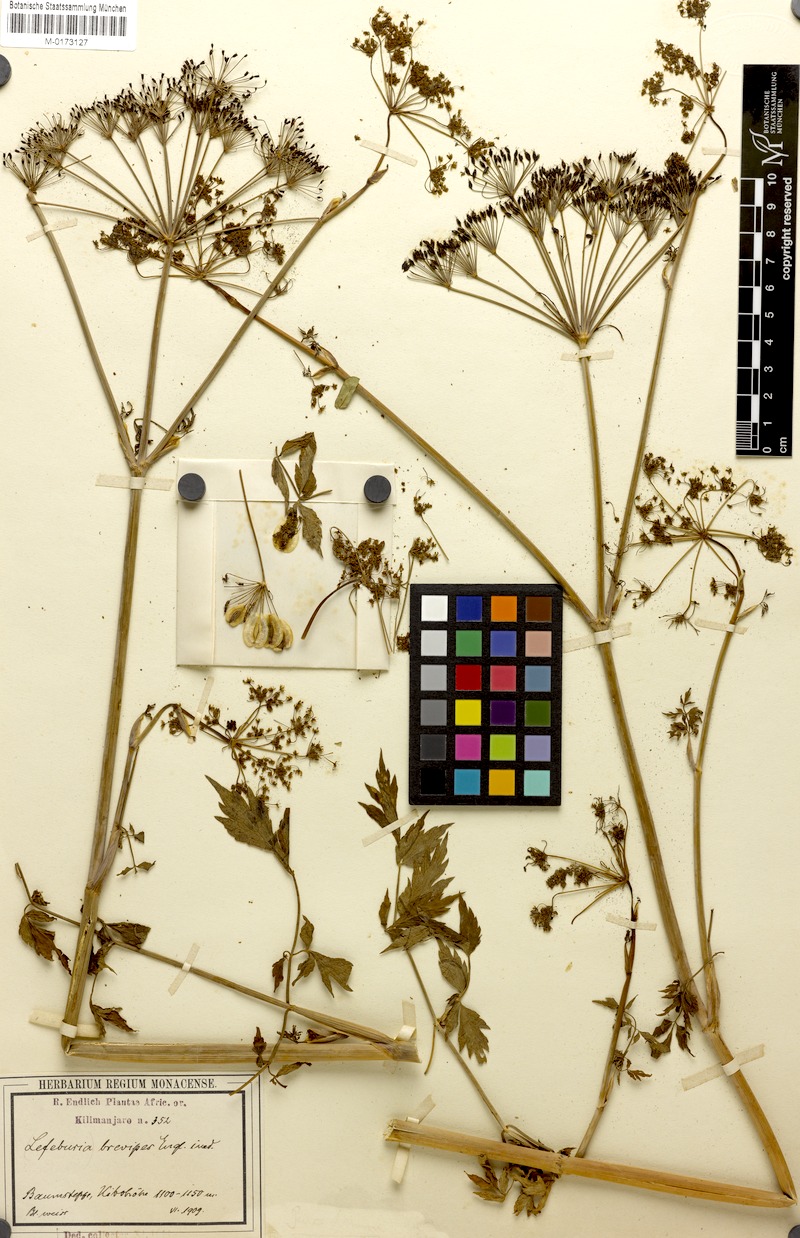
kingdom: Plantae
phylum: Tracheophyta
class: Magnoliopsida
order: Apiales
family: Apiaceae
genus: Lefebvrea
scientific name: Lefebvrea longipedicellata
